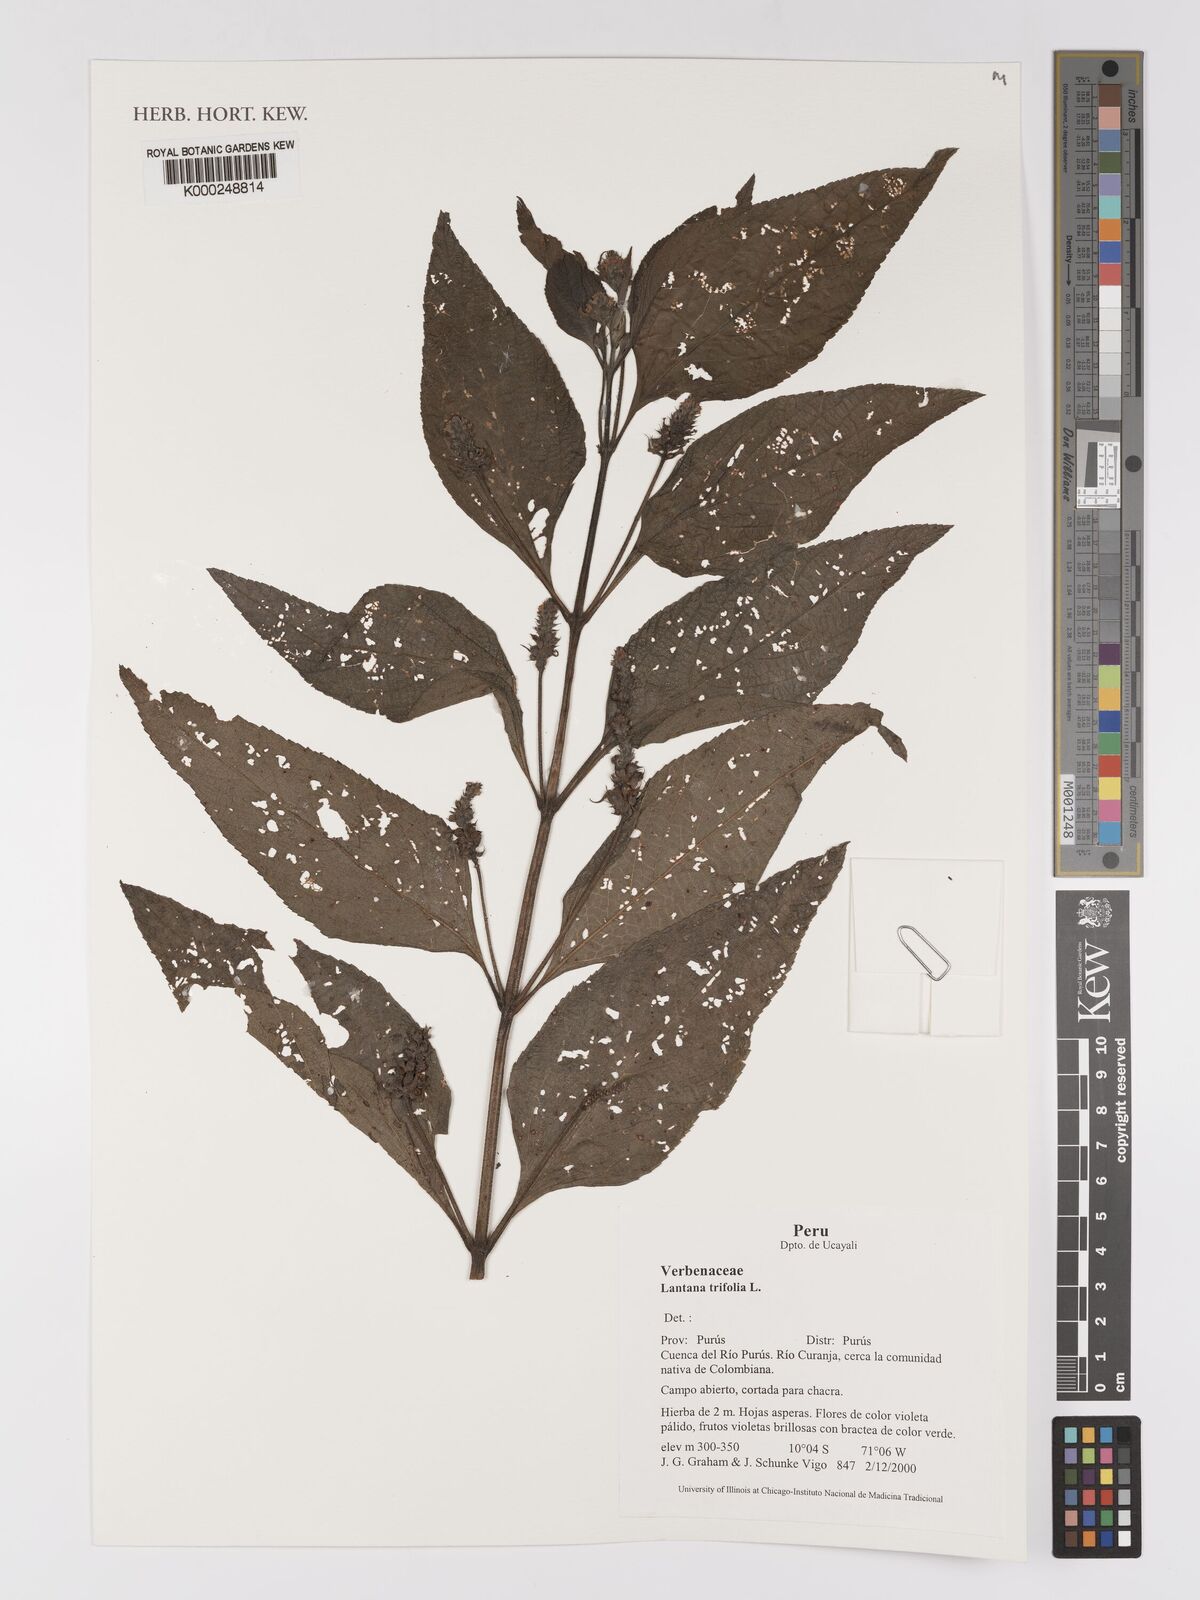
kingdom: Plantae
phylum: Tracheophyta
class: Magnoliopsida
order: Lamiales
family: Verbenaceae
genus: Lantana
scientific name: Lantana trifolia
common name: Sweet-sage
